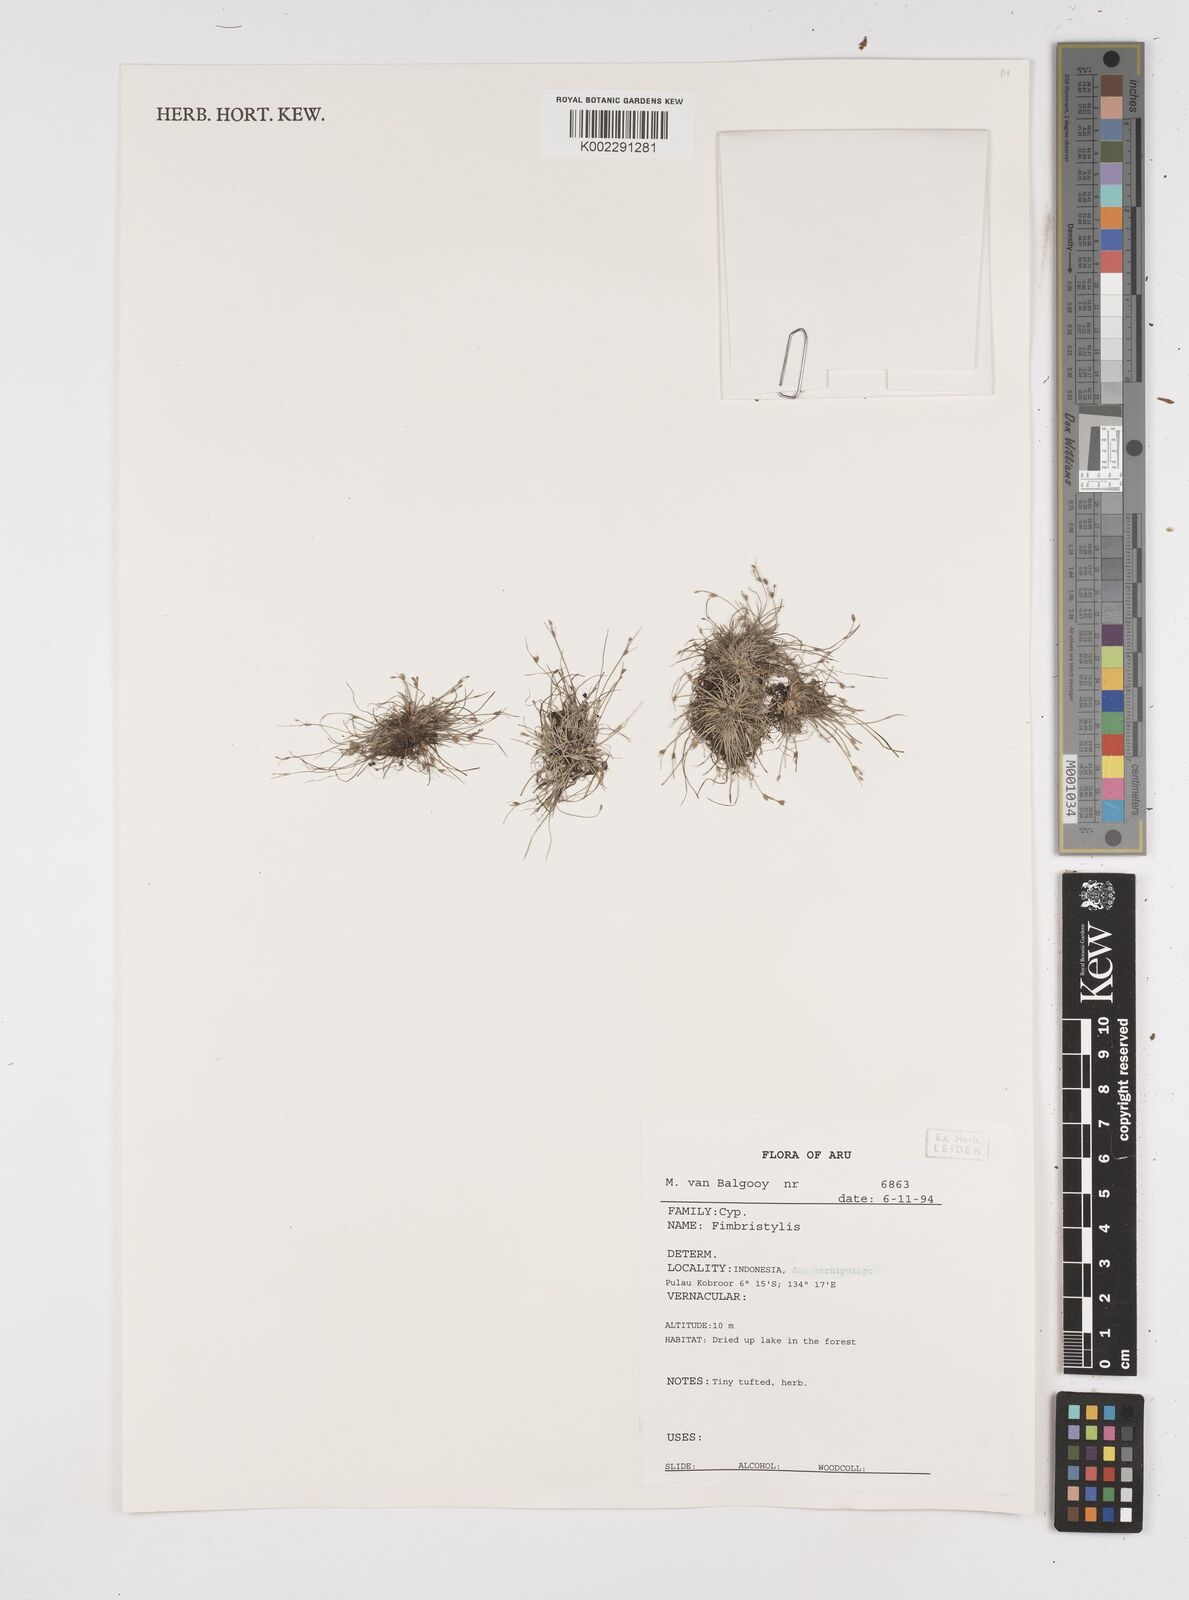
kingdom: Plantae
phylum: Tracheophyta
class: Liliopsida
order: Poales
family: Cyperaceae
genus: Fimbristylis
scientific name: Fimbristylis
